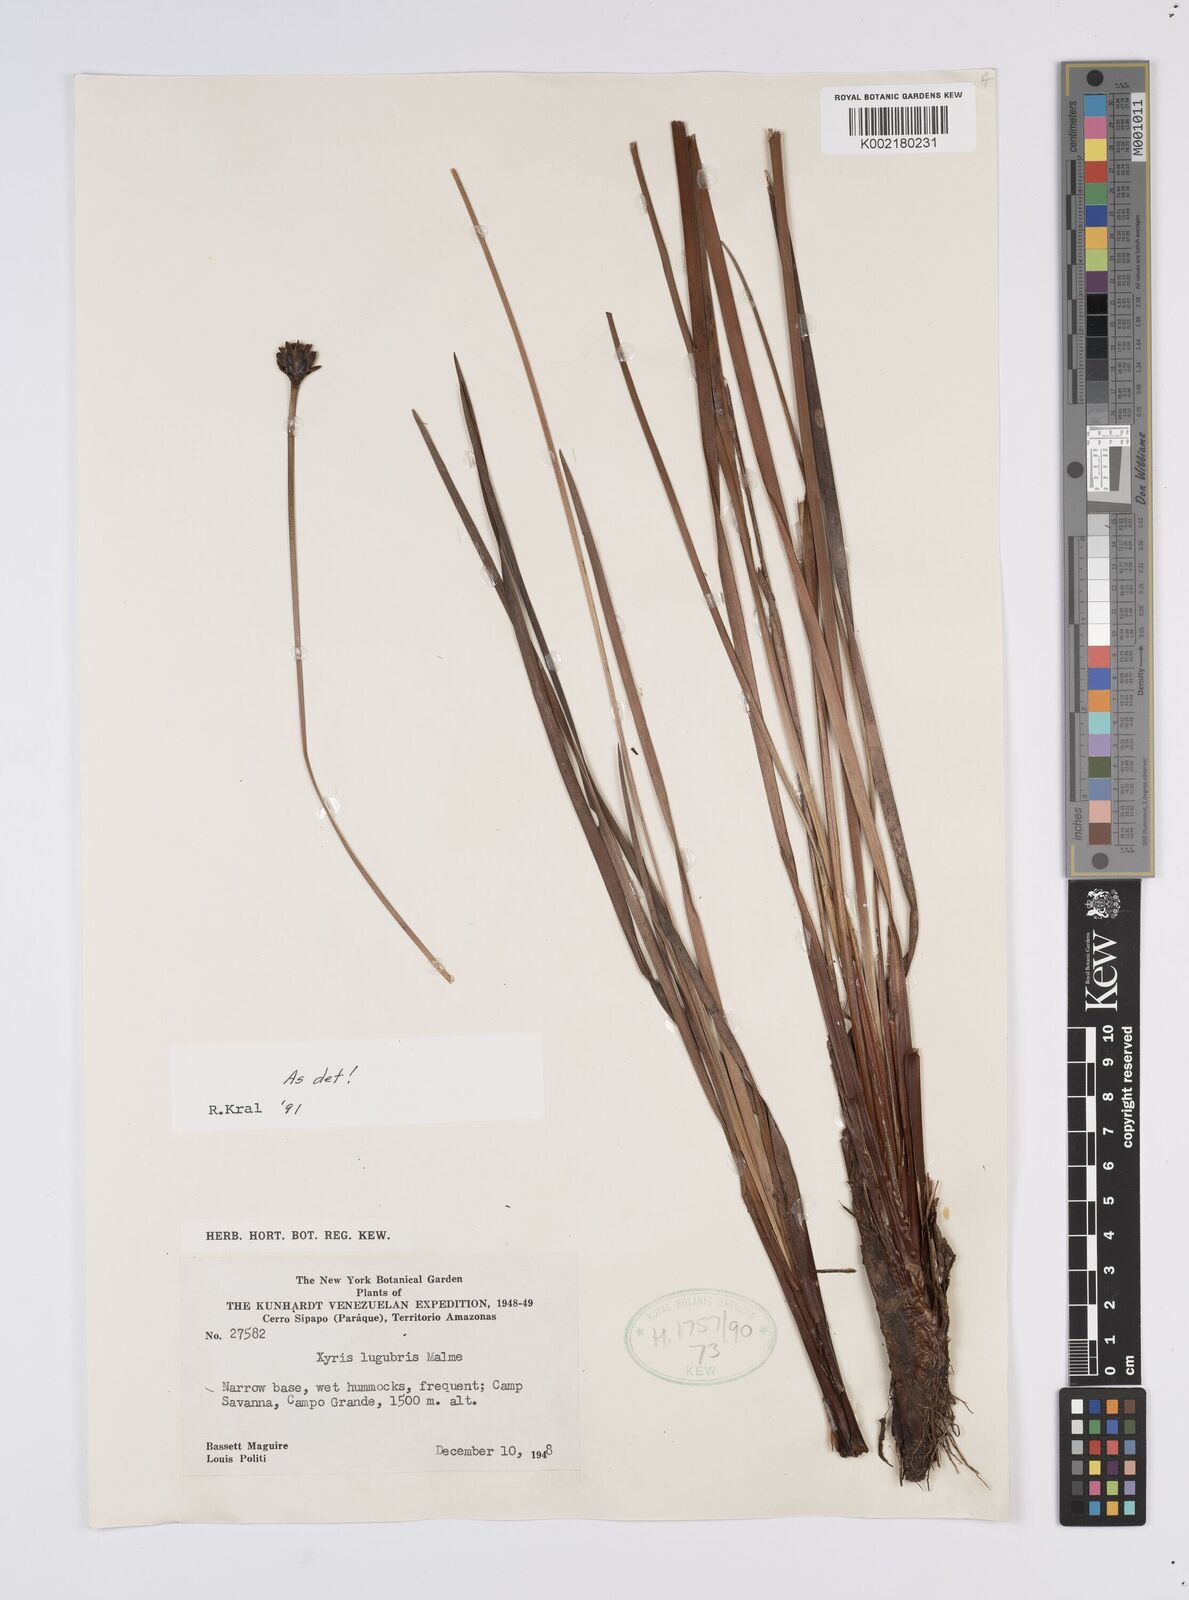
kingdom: Plantae
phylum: Tracheophyta
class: Liliopsida
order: Poales
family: Xyridaceae
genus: Xyris
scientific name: Xyris lugubris
